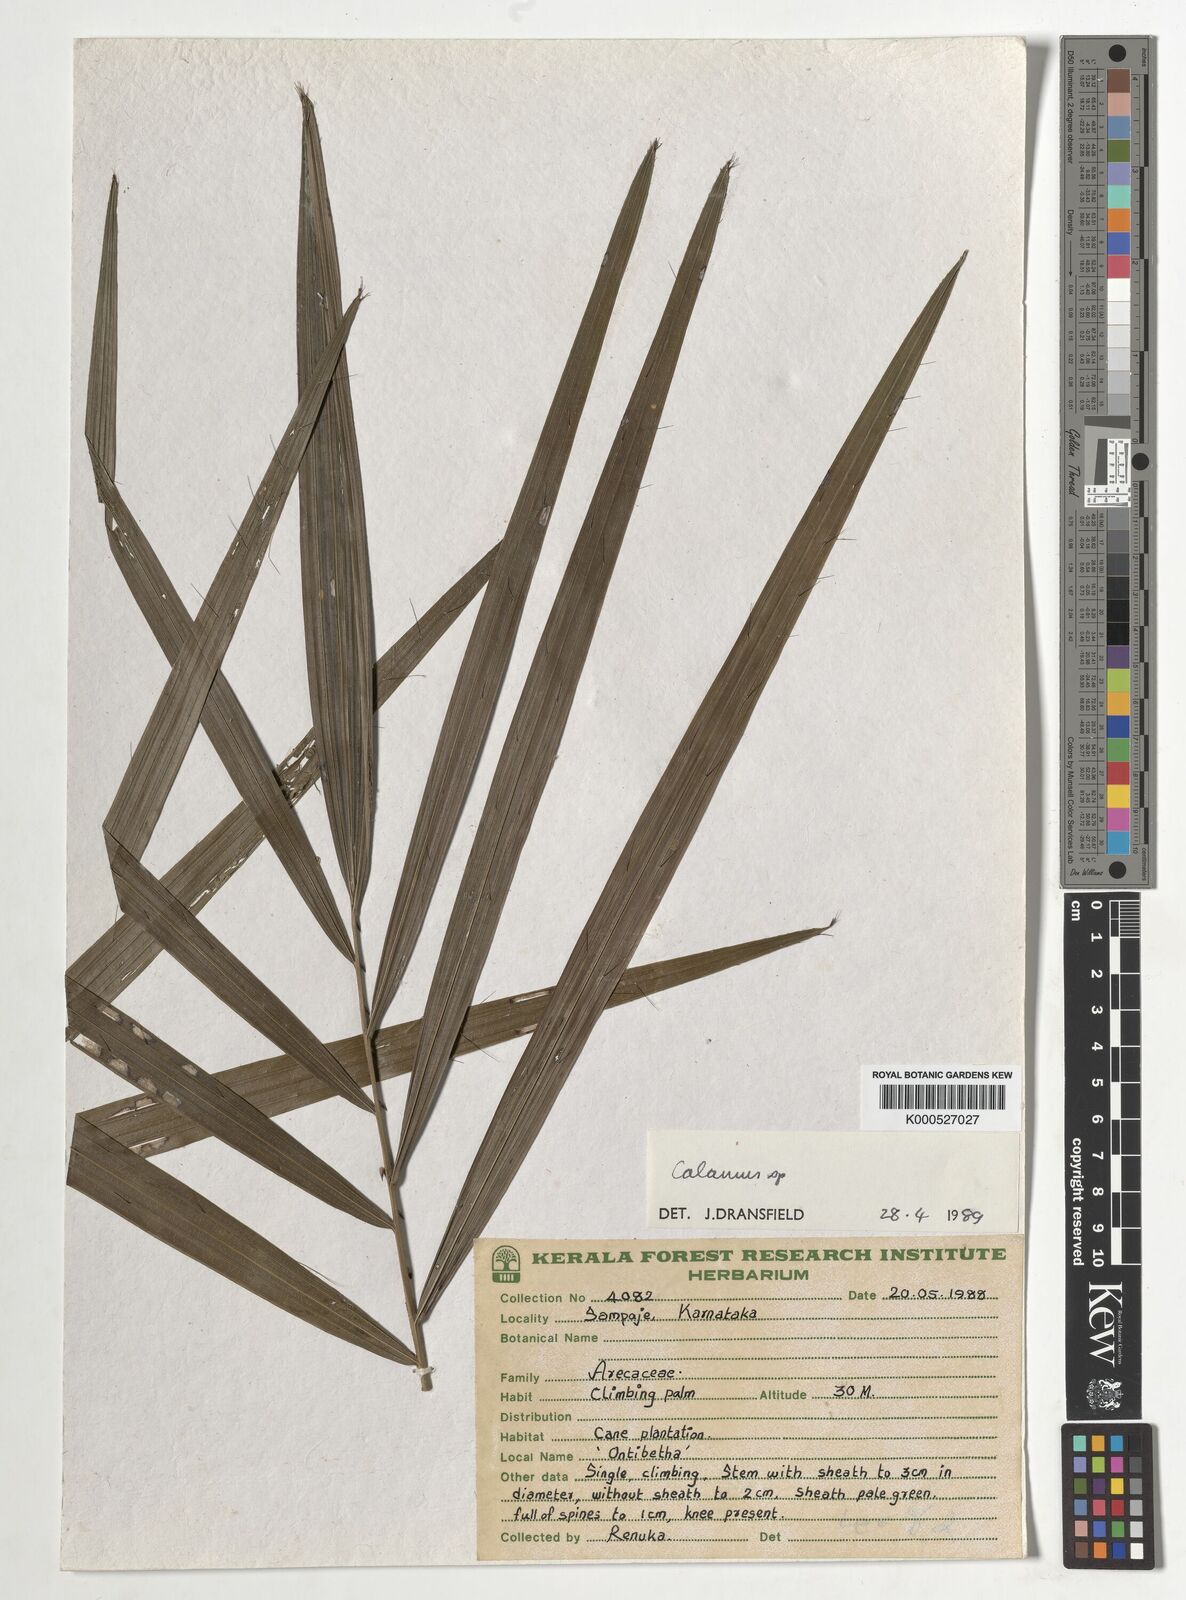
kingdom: Plantae
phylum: Tracheophyta
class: Liliopsida
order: Arecales
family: Arecaceae
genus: Calamus
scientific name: Calamus gamblei
